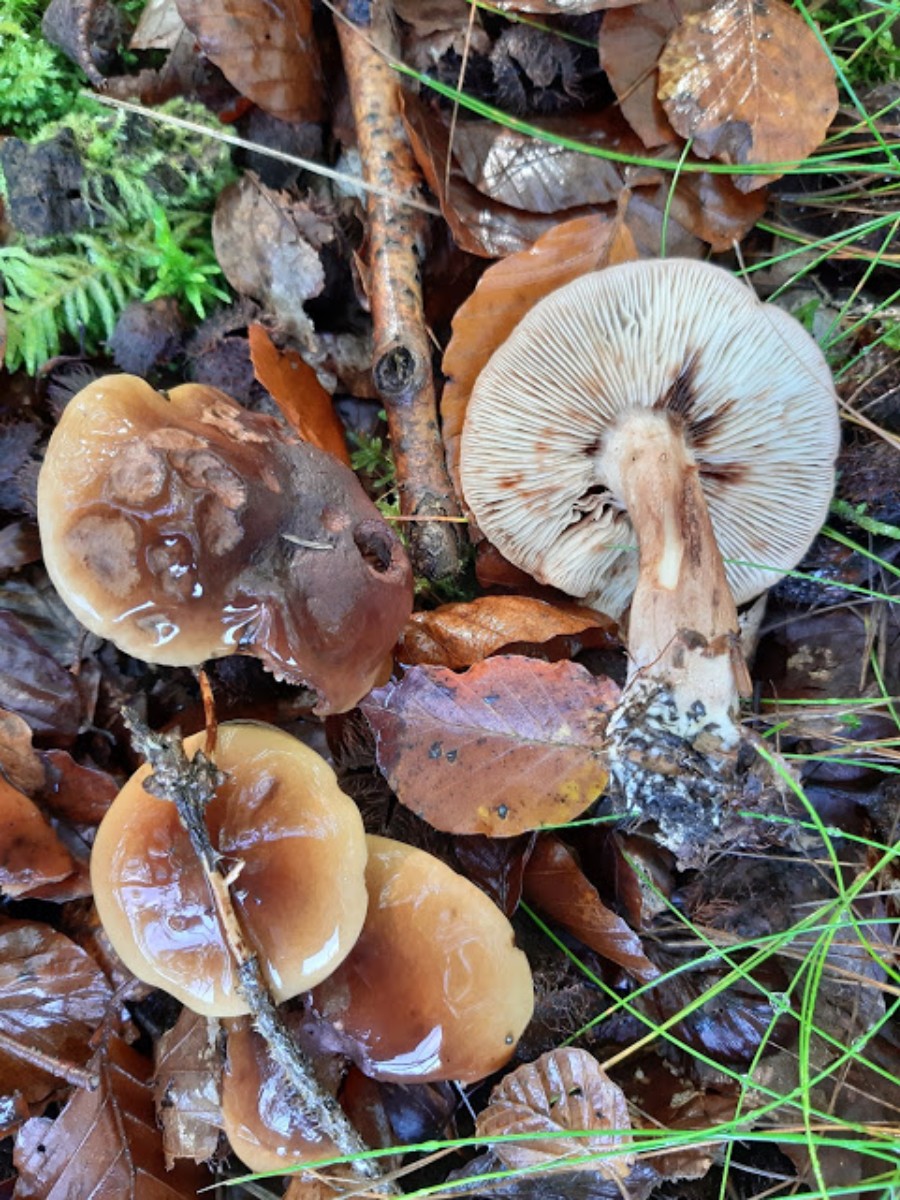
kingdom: Fungi
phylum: Basidiomycota
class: Agaricomycetes
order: Agaricales
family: Tricholomataceae
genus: Tricholoma
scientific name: Tricholoma ustale
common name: sveden ridderhat
